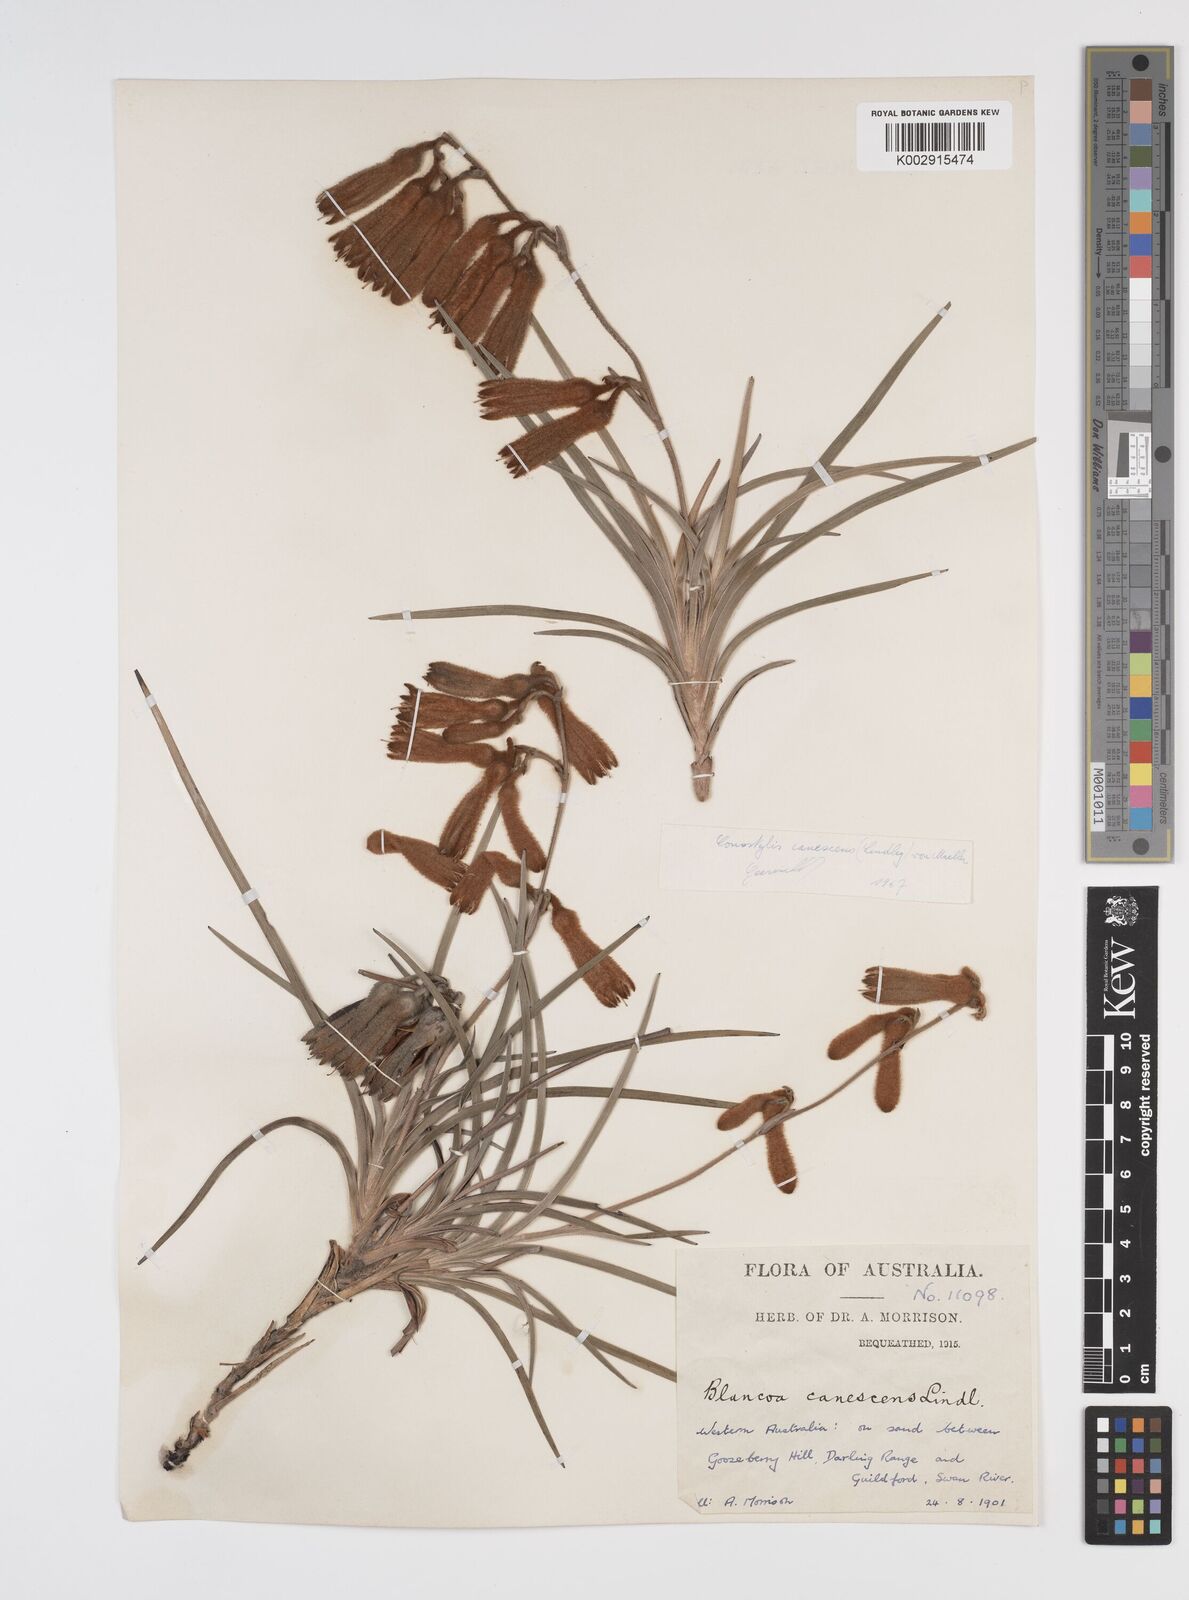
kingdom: Plantae
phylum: Tracheophyta
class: Liliopsida
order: Commelinales
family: Haemodoraceae
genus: Blancoa
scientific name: Blancoa canescens
